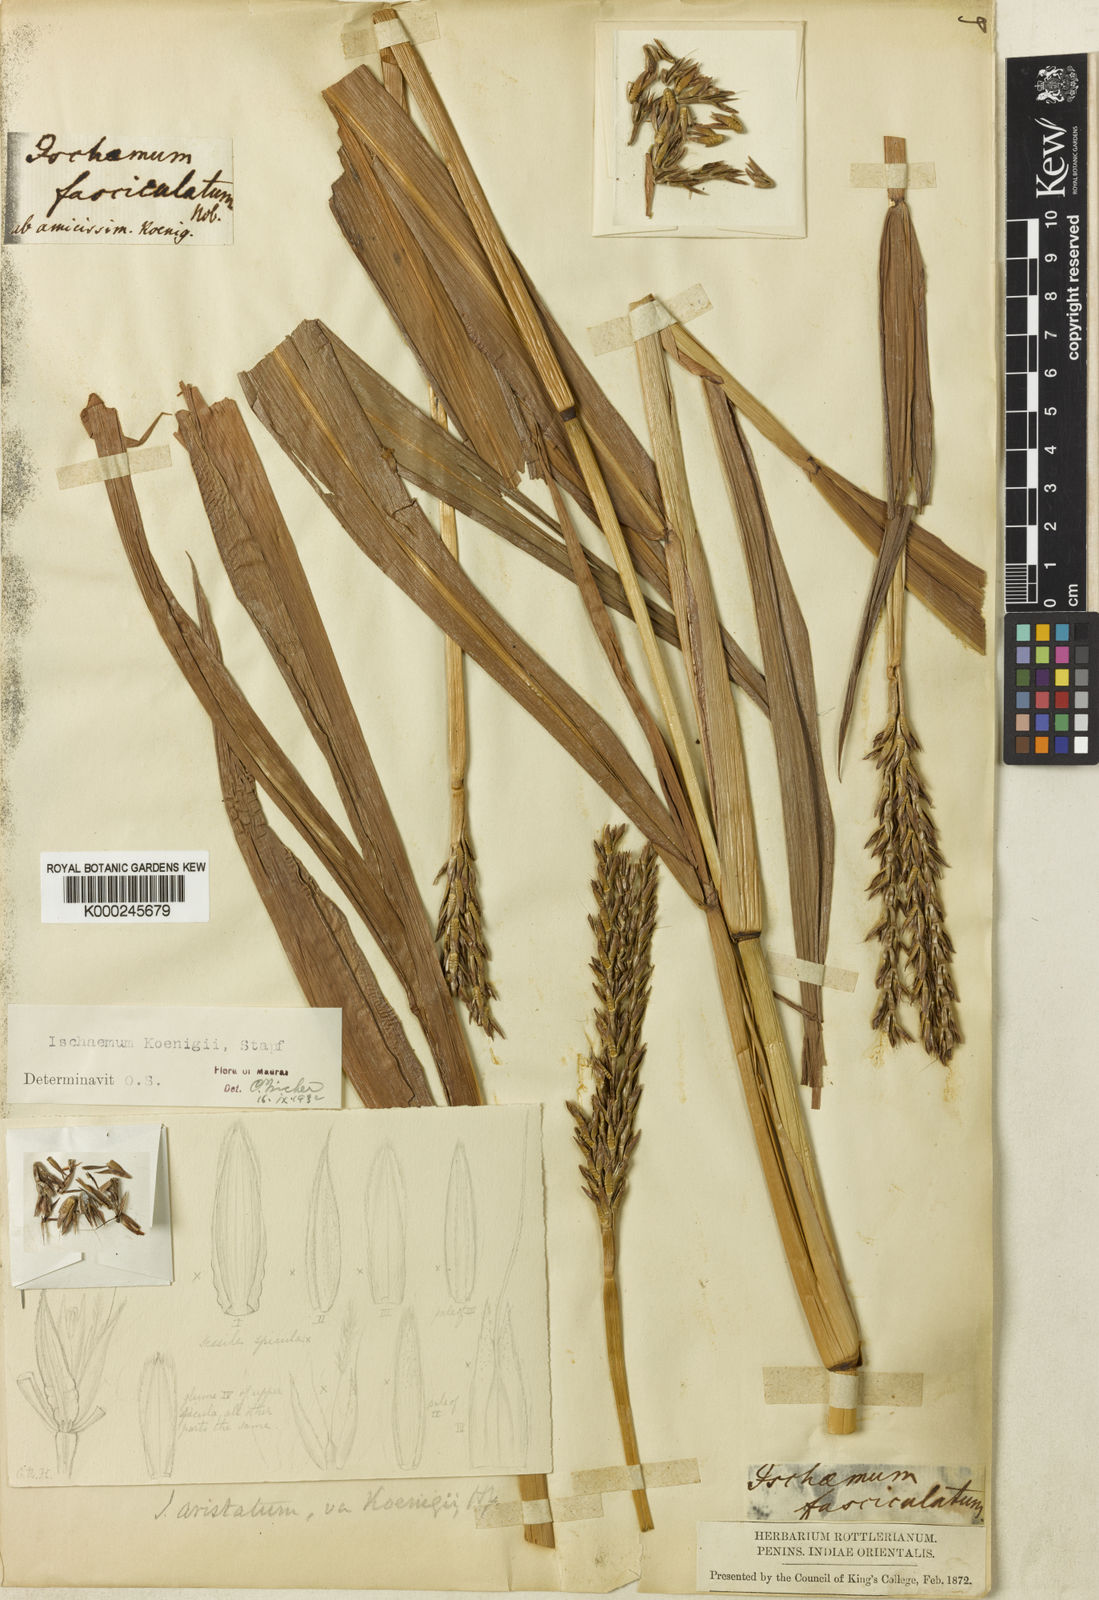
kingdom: Plantae
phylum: Tracheophyta
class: Liliopsida
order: Poales
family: Poaceae
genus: Ischaemum
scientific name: Ischaemum barbatum
